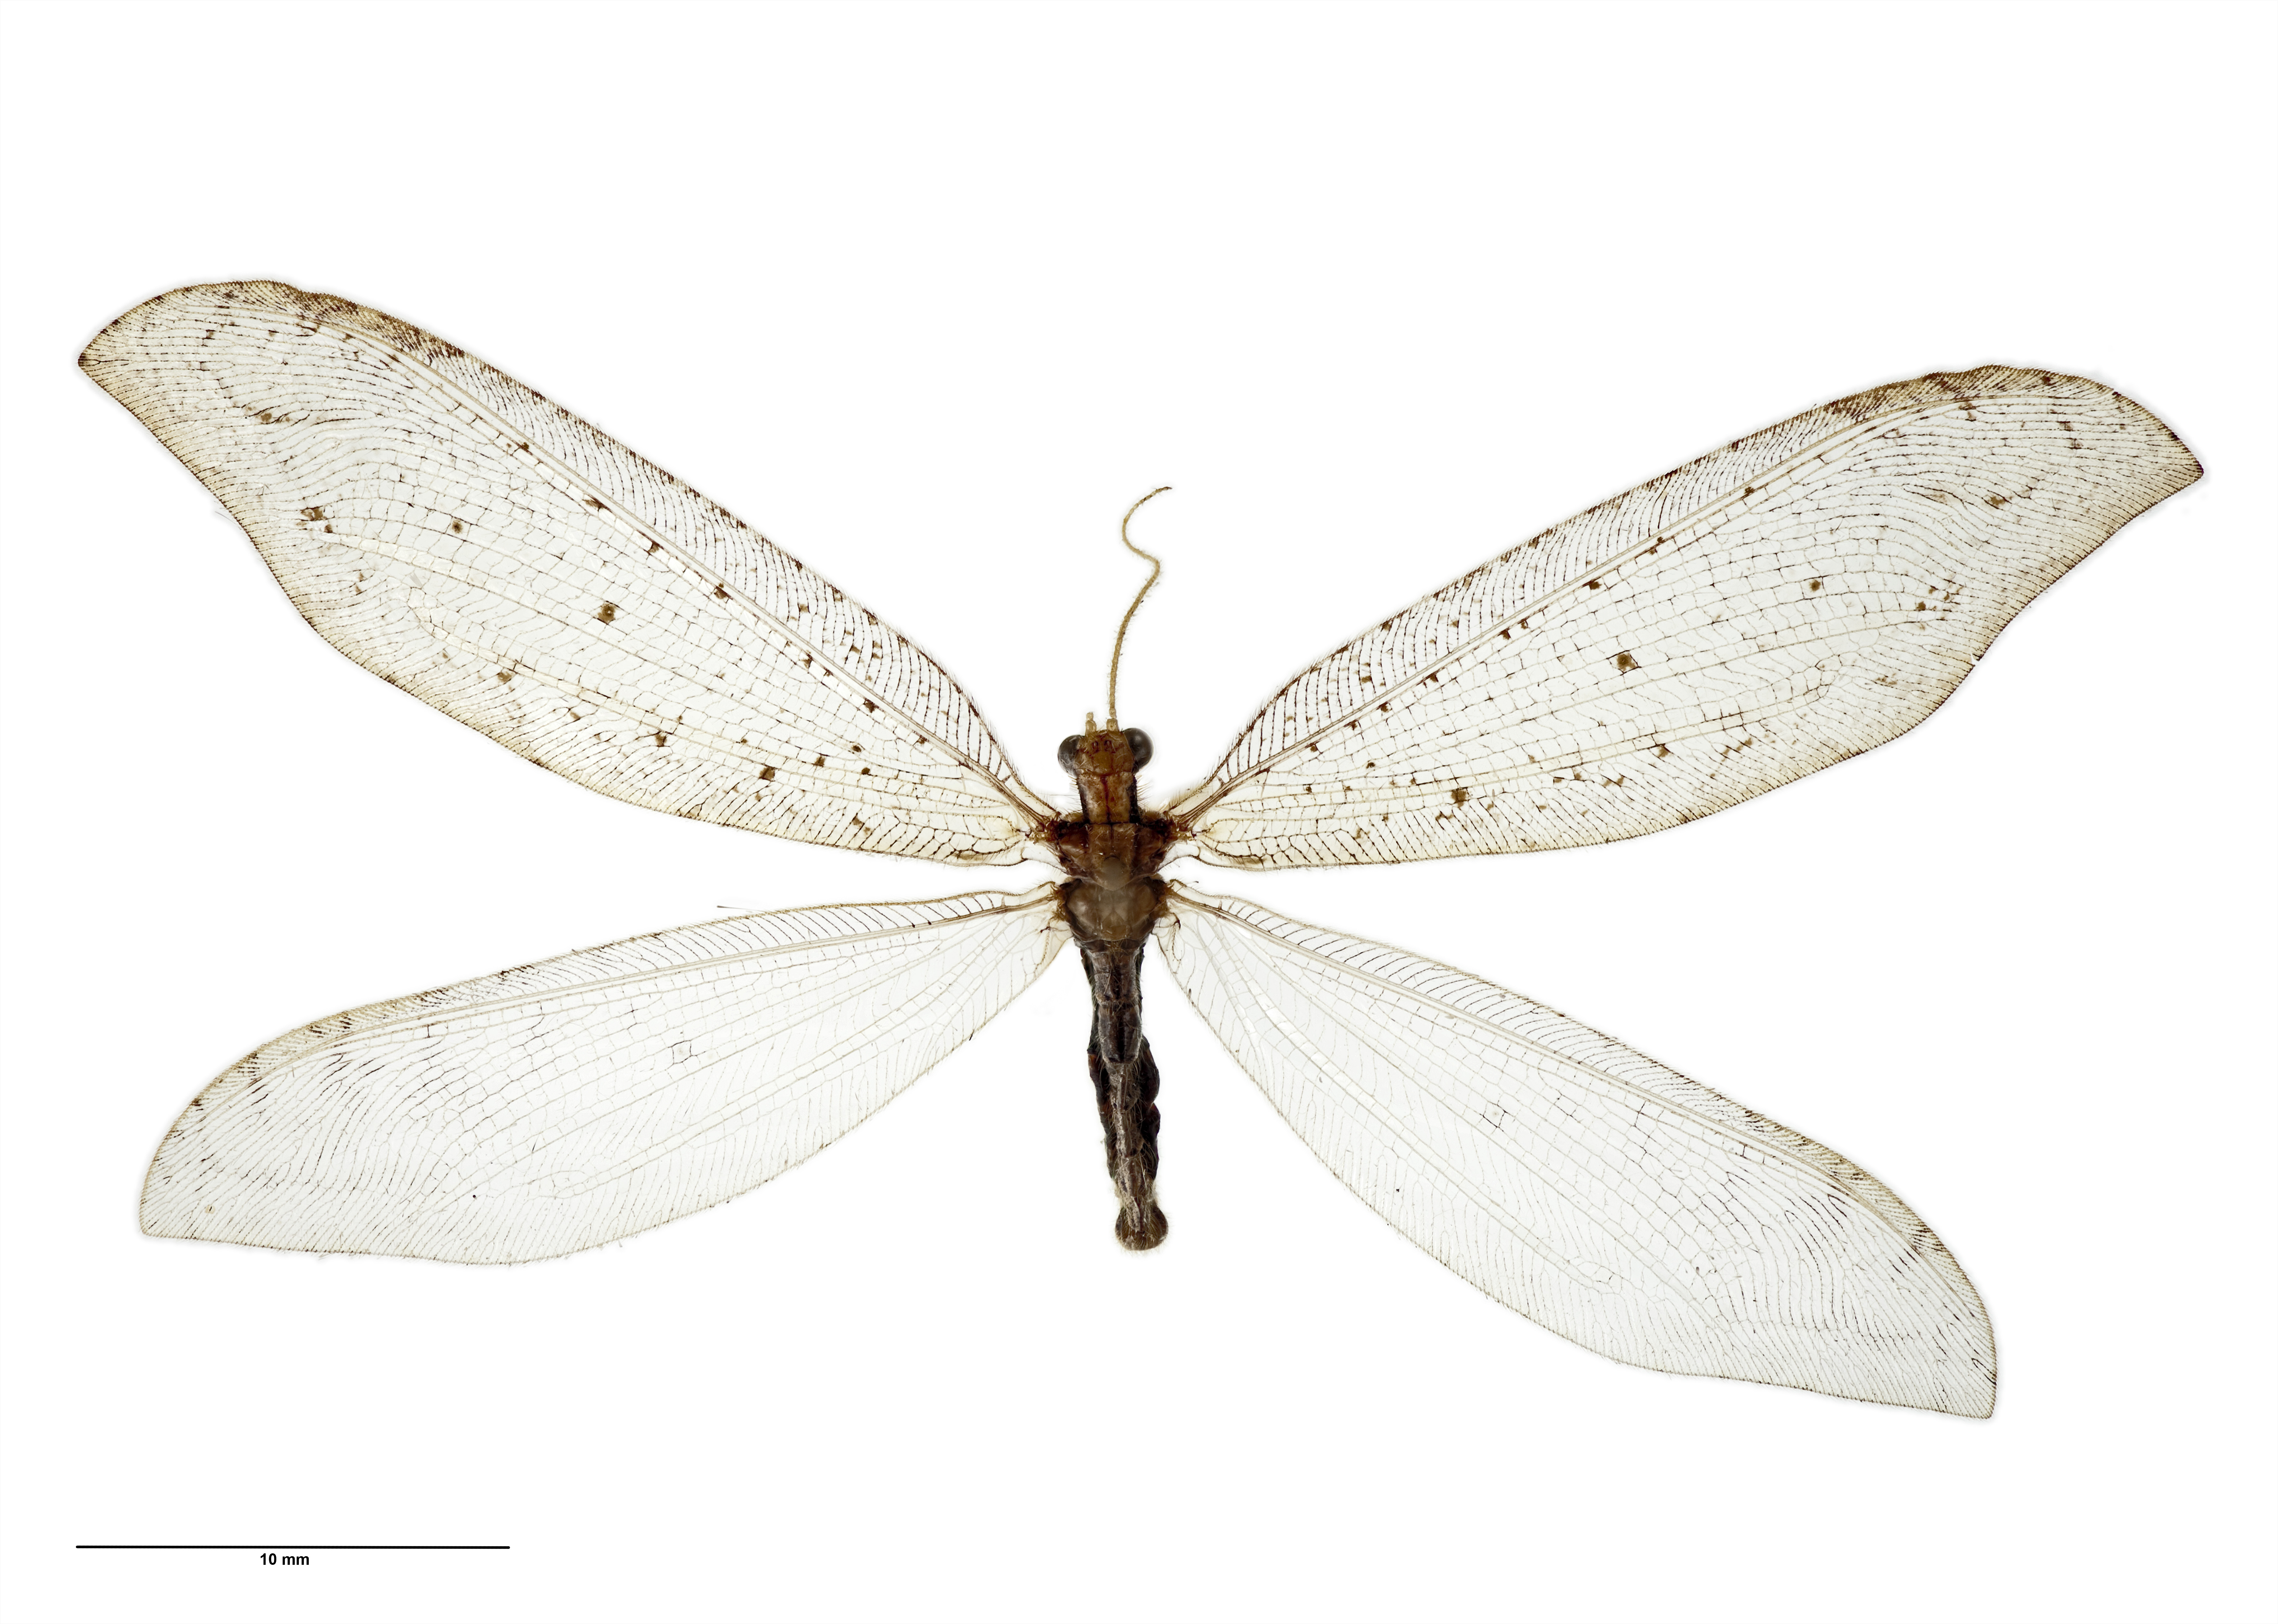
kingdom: Animalia
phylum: Arthropoda
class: Insecta
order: Neuroptera
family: Osmylidae
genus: Kempynus
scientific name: Kempynus citrinus
